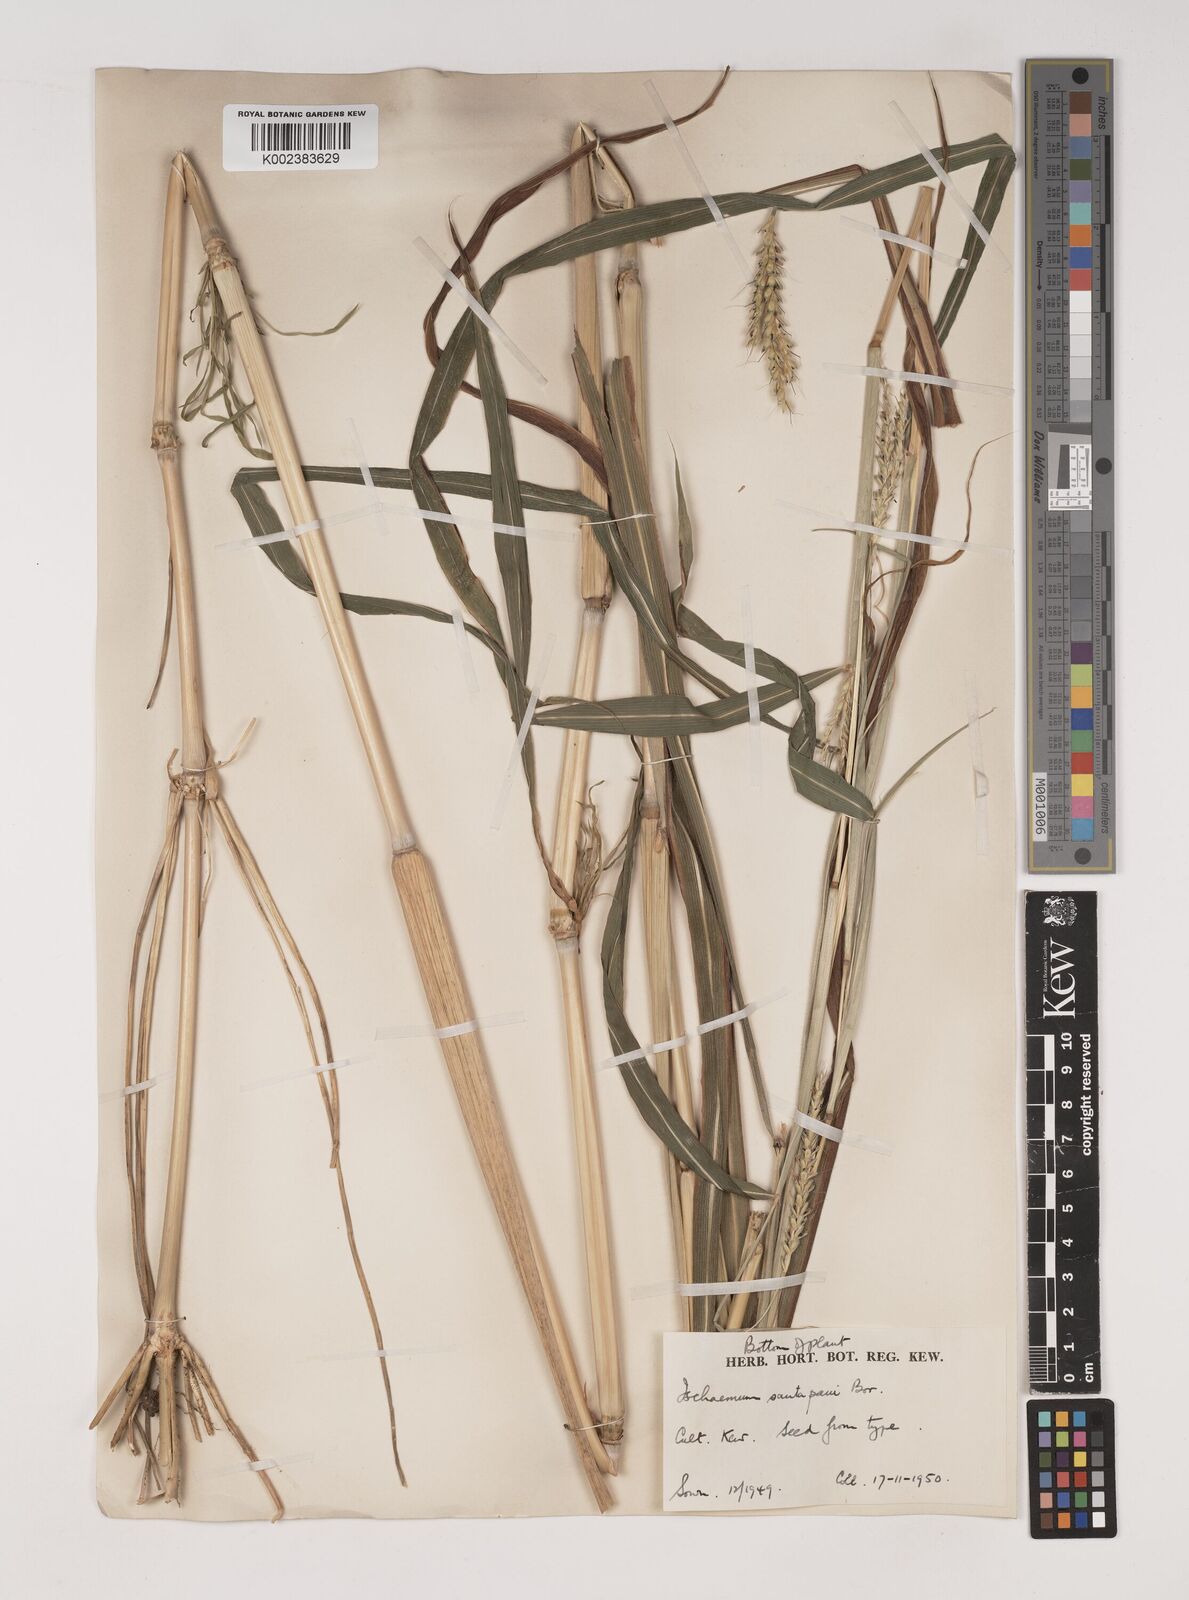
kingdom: Plantae
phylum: Tracheophyta
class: Liliopsida
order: Poales
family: Poaceae
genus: Ischaemum
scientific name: Ischaemum santapaui
